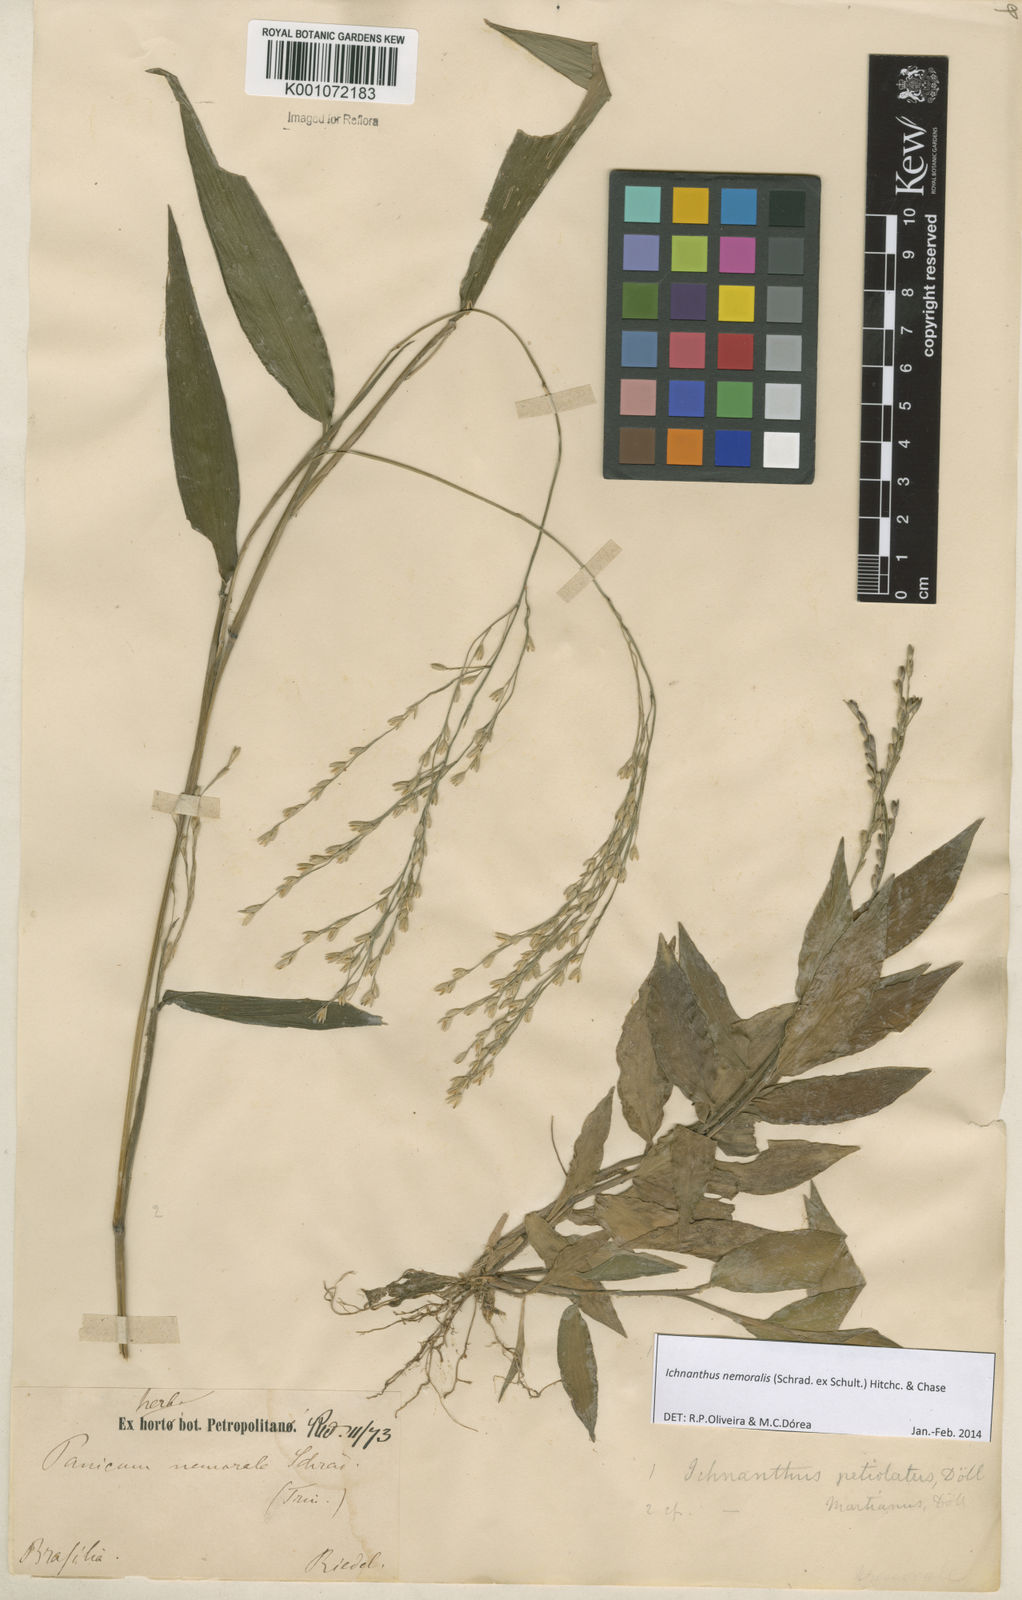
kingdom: Plantae
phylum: Tracheophyta
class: Liliopsida
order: Poales
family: Poaceae
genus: Ichnanthus
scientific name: Ichnanthus nemoralis
